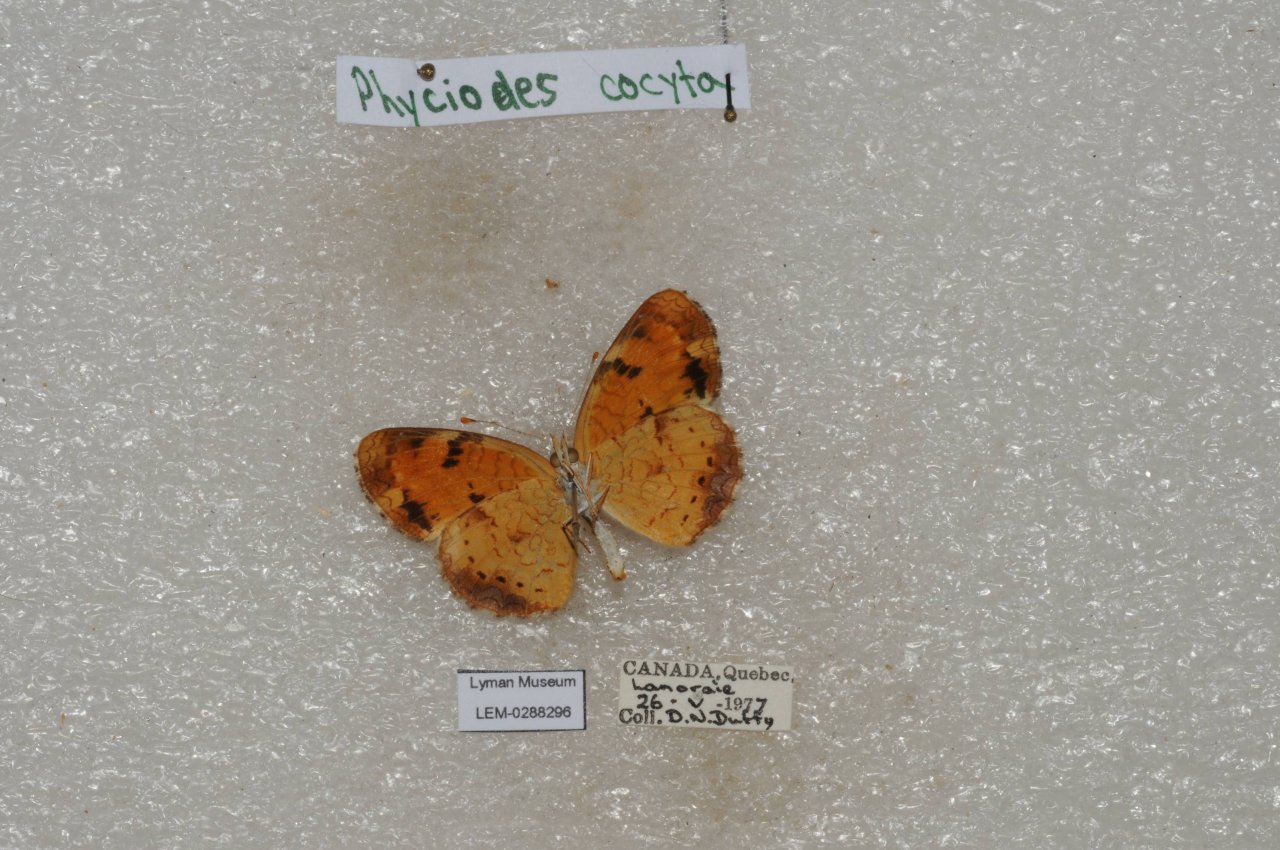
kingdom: Animalia
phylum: Arthropoda
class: Insecta
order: Lepidoptera
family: Nymphalidae
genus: Phyciodes
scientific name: Phyciodes tharos
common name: Northern Crescent
